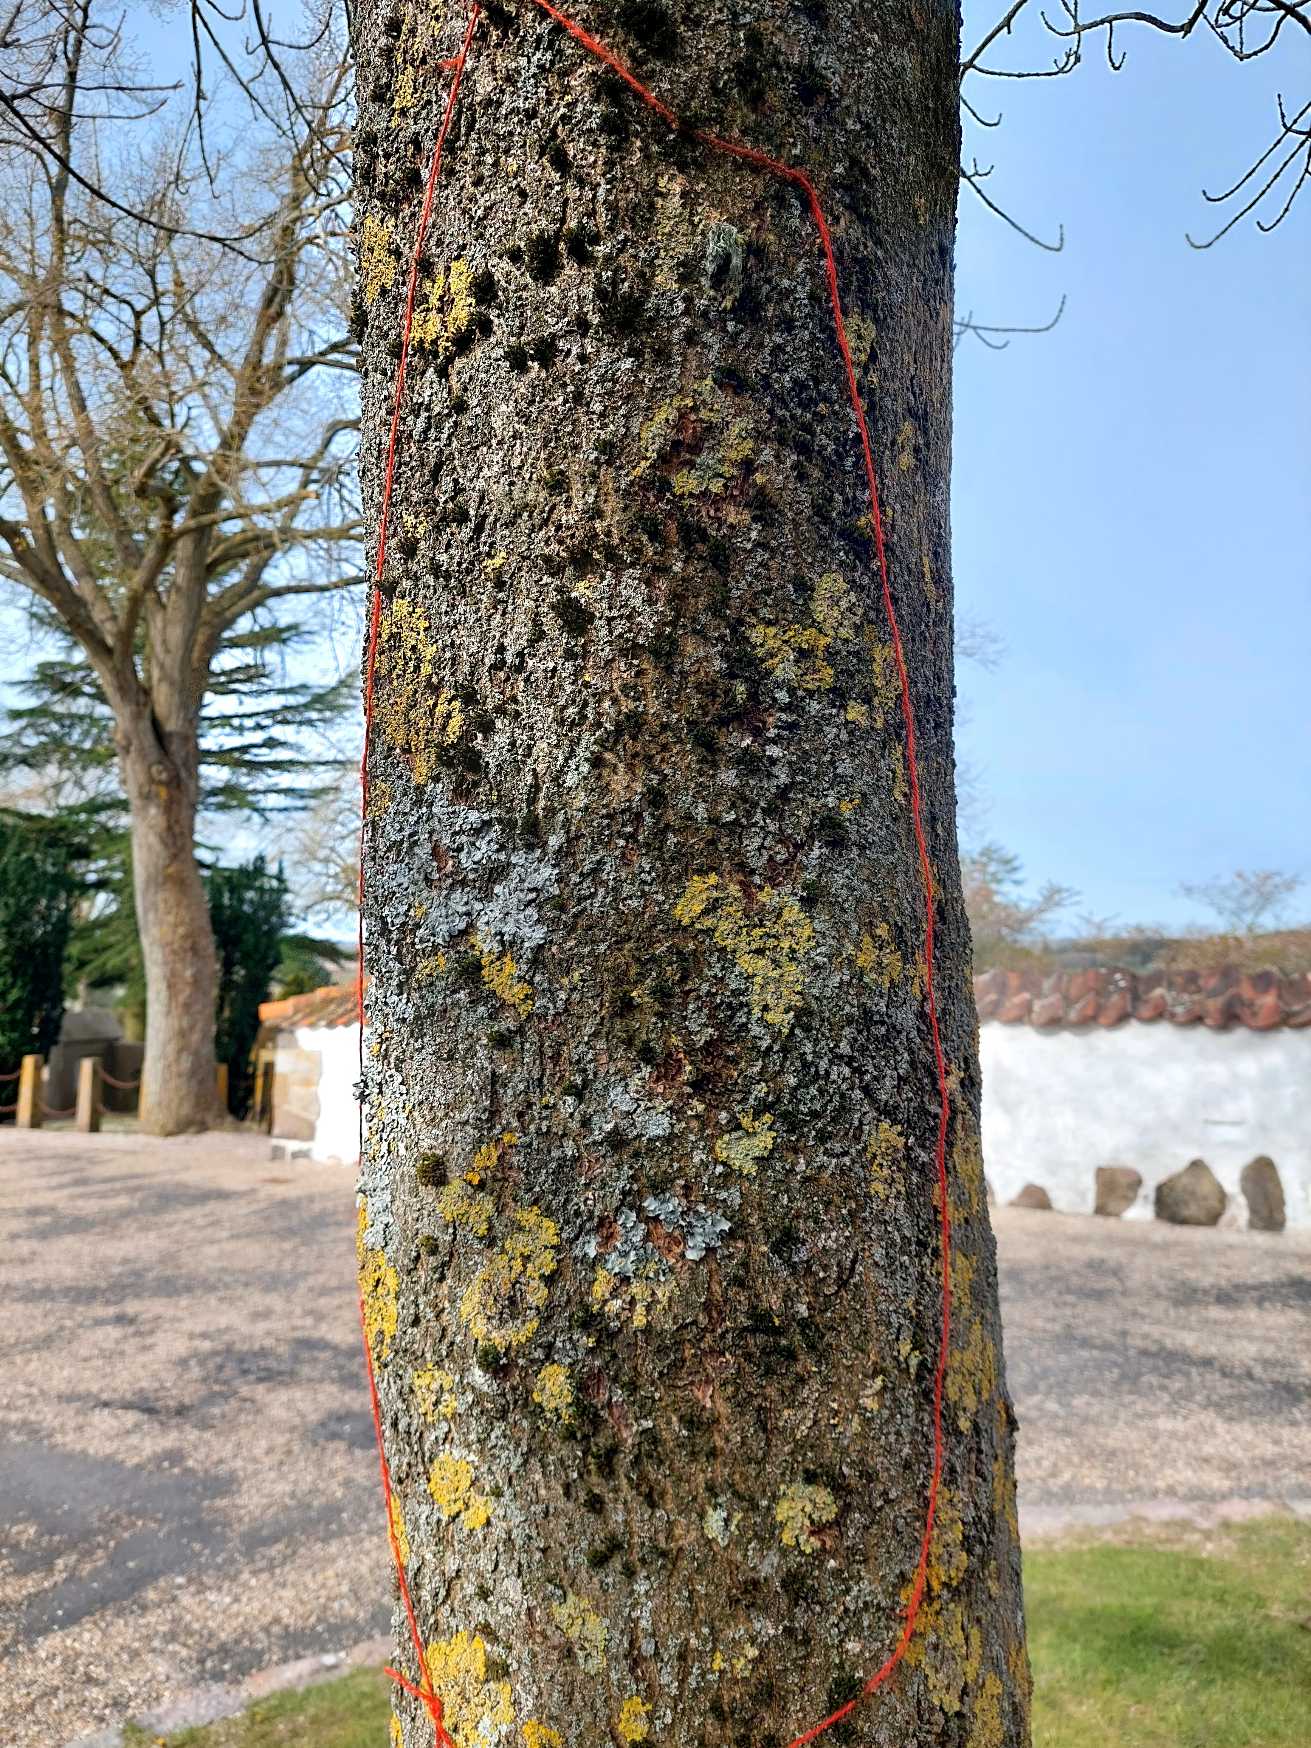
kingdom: Fungi
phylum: Ascomycota
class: Lecanoromycetes
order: Teloschistales
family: Teloschistaceae
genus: Xanthoria
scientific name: Xanthoria parietina
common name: Almindelig væggelav
